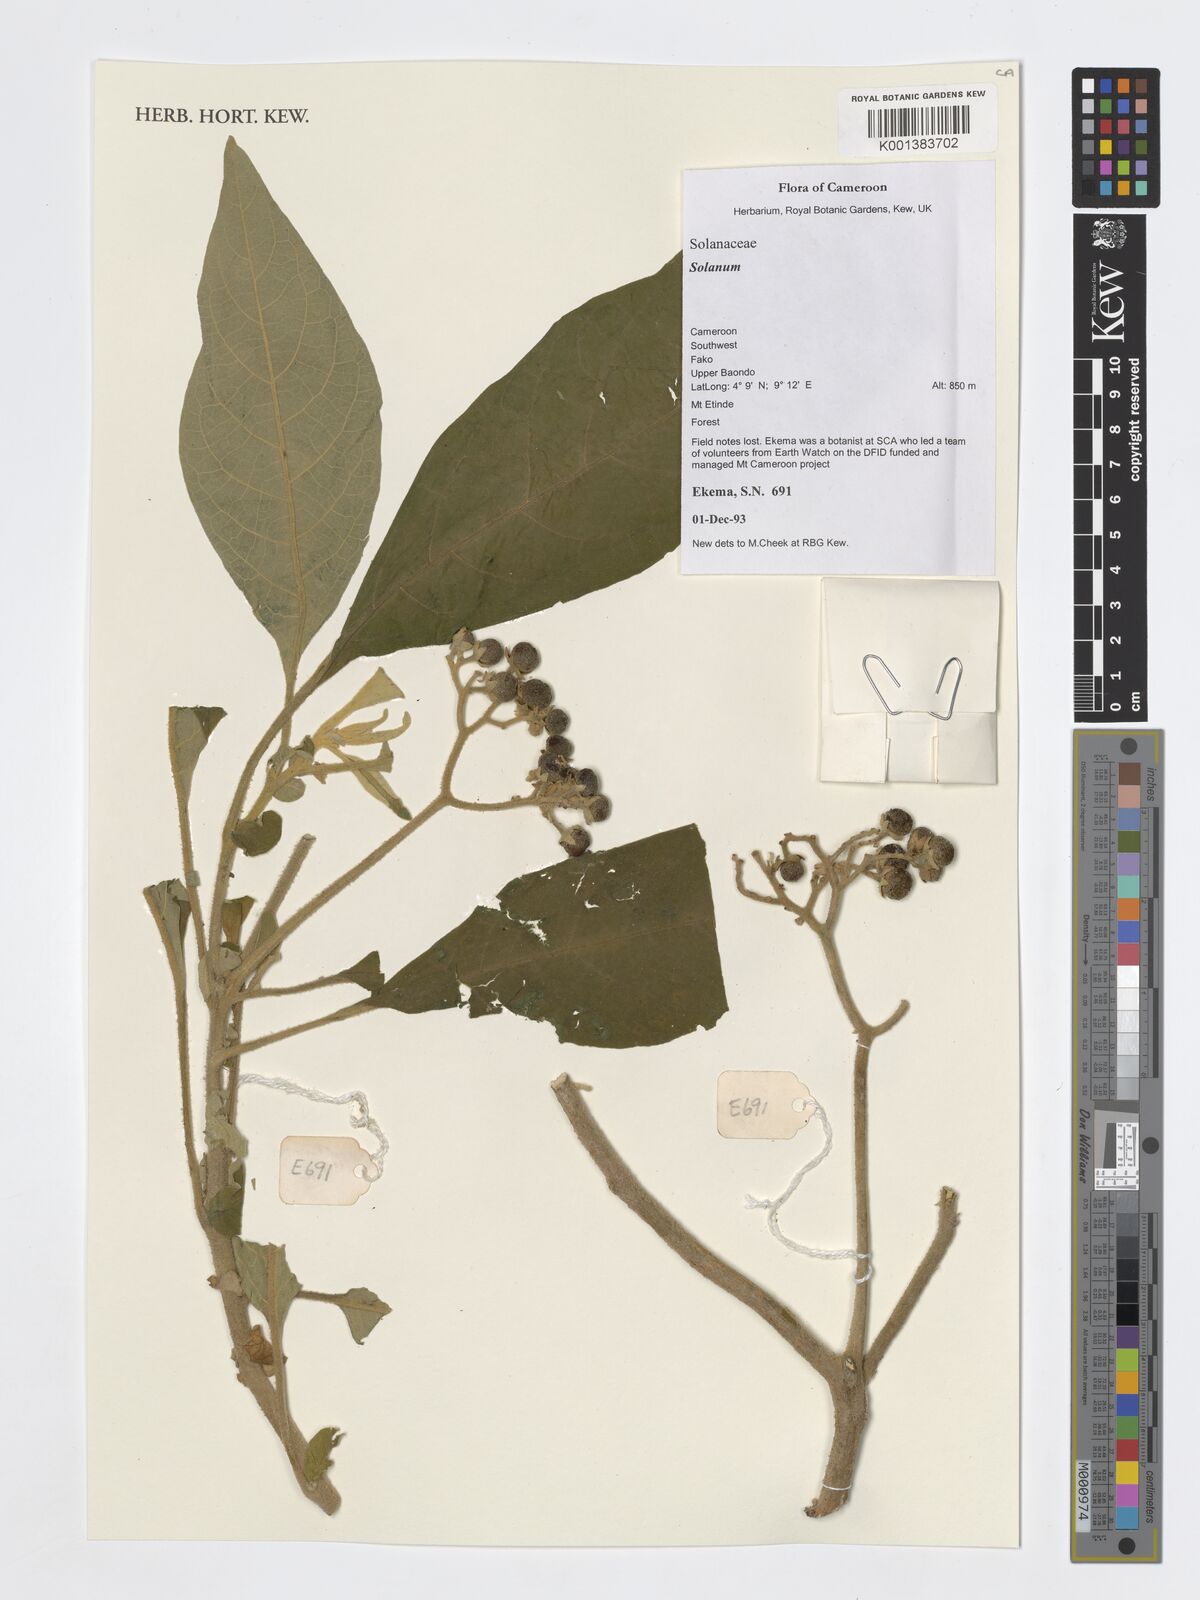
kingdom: Plantae
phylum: Tracheophyta
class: Magnoliopsida
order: Solanales
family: Solanaceae
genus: Solanum
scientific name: Solanum
